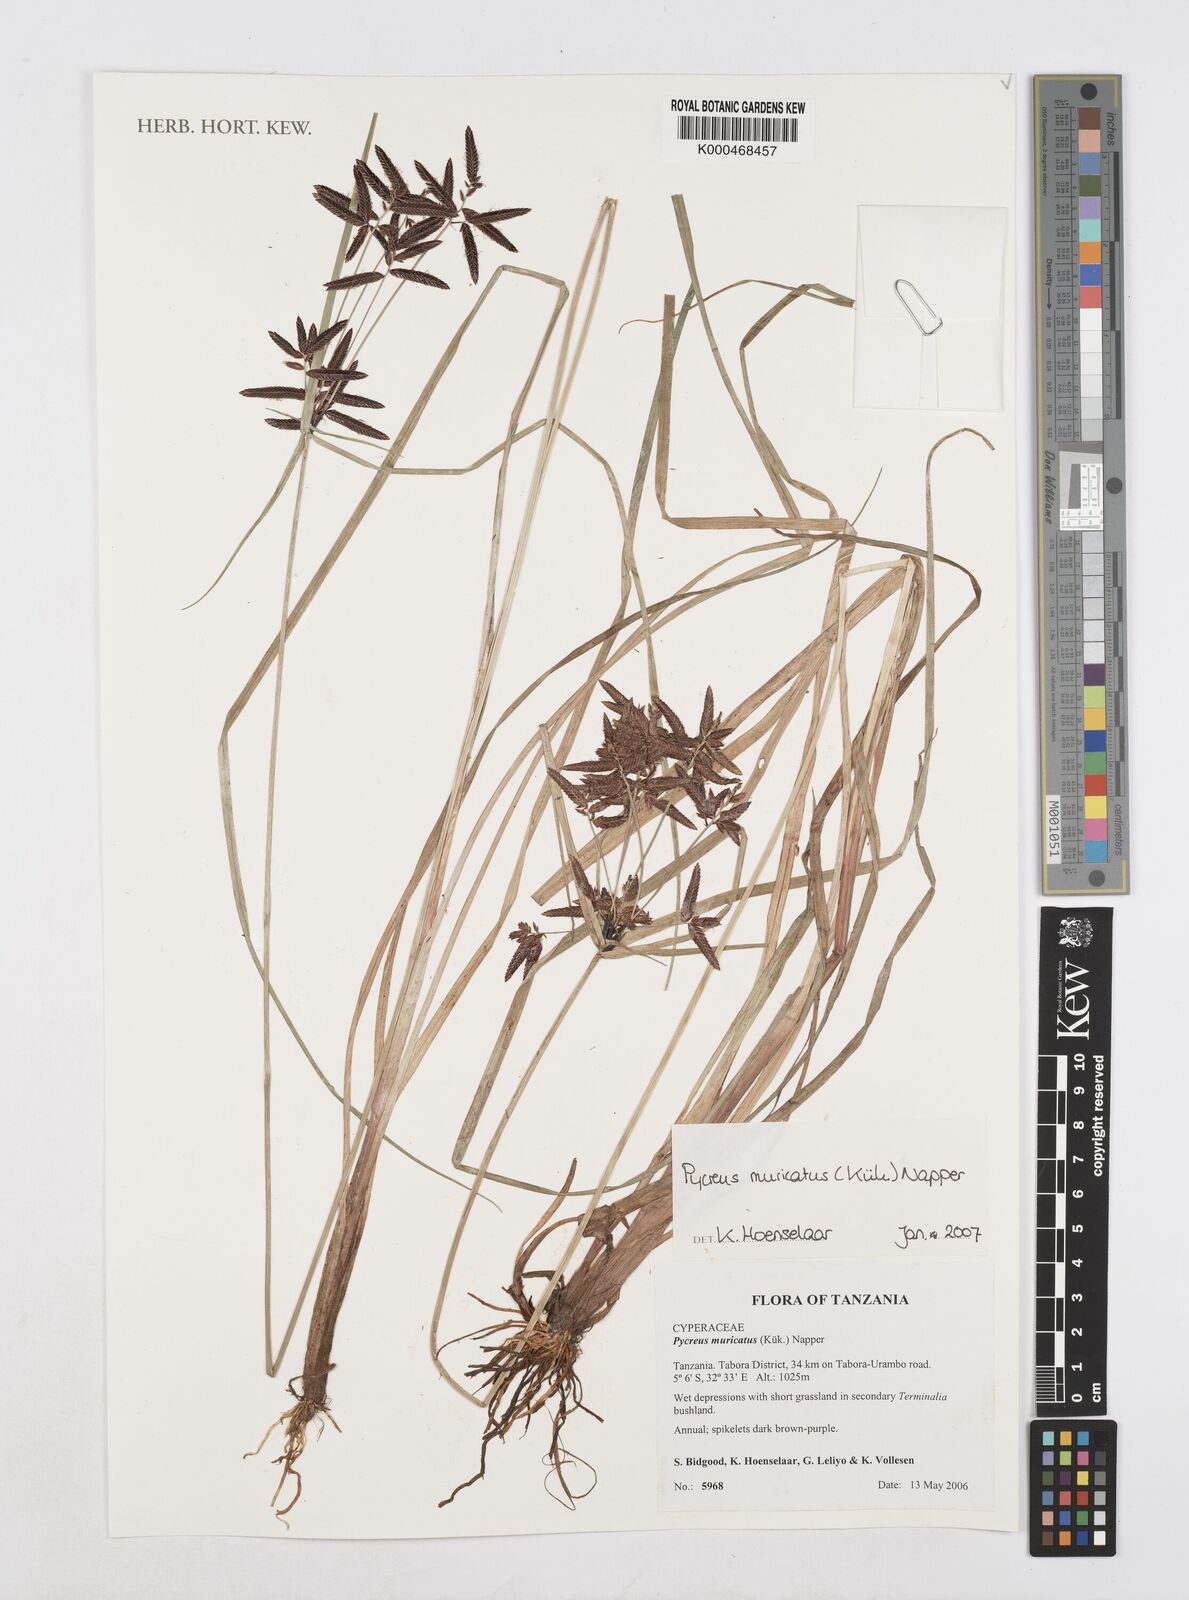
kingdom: Plantae
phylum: Tracheophyta
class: Liliopsida
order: Poales
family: Cyperaceae
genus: Cyperus
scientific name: Cyperus
